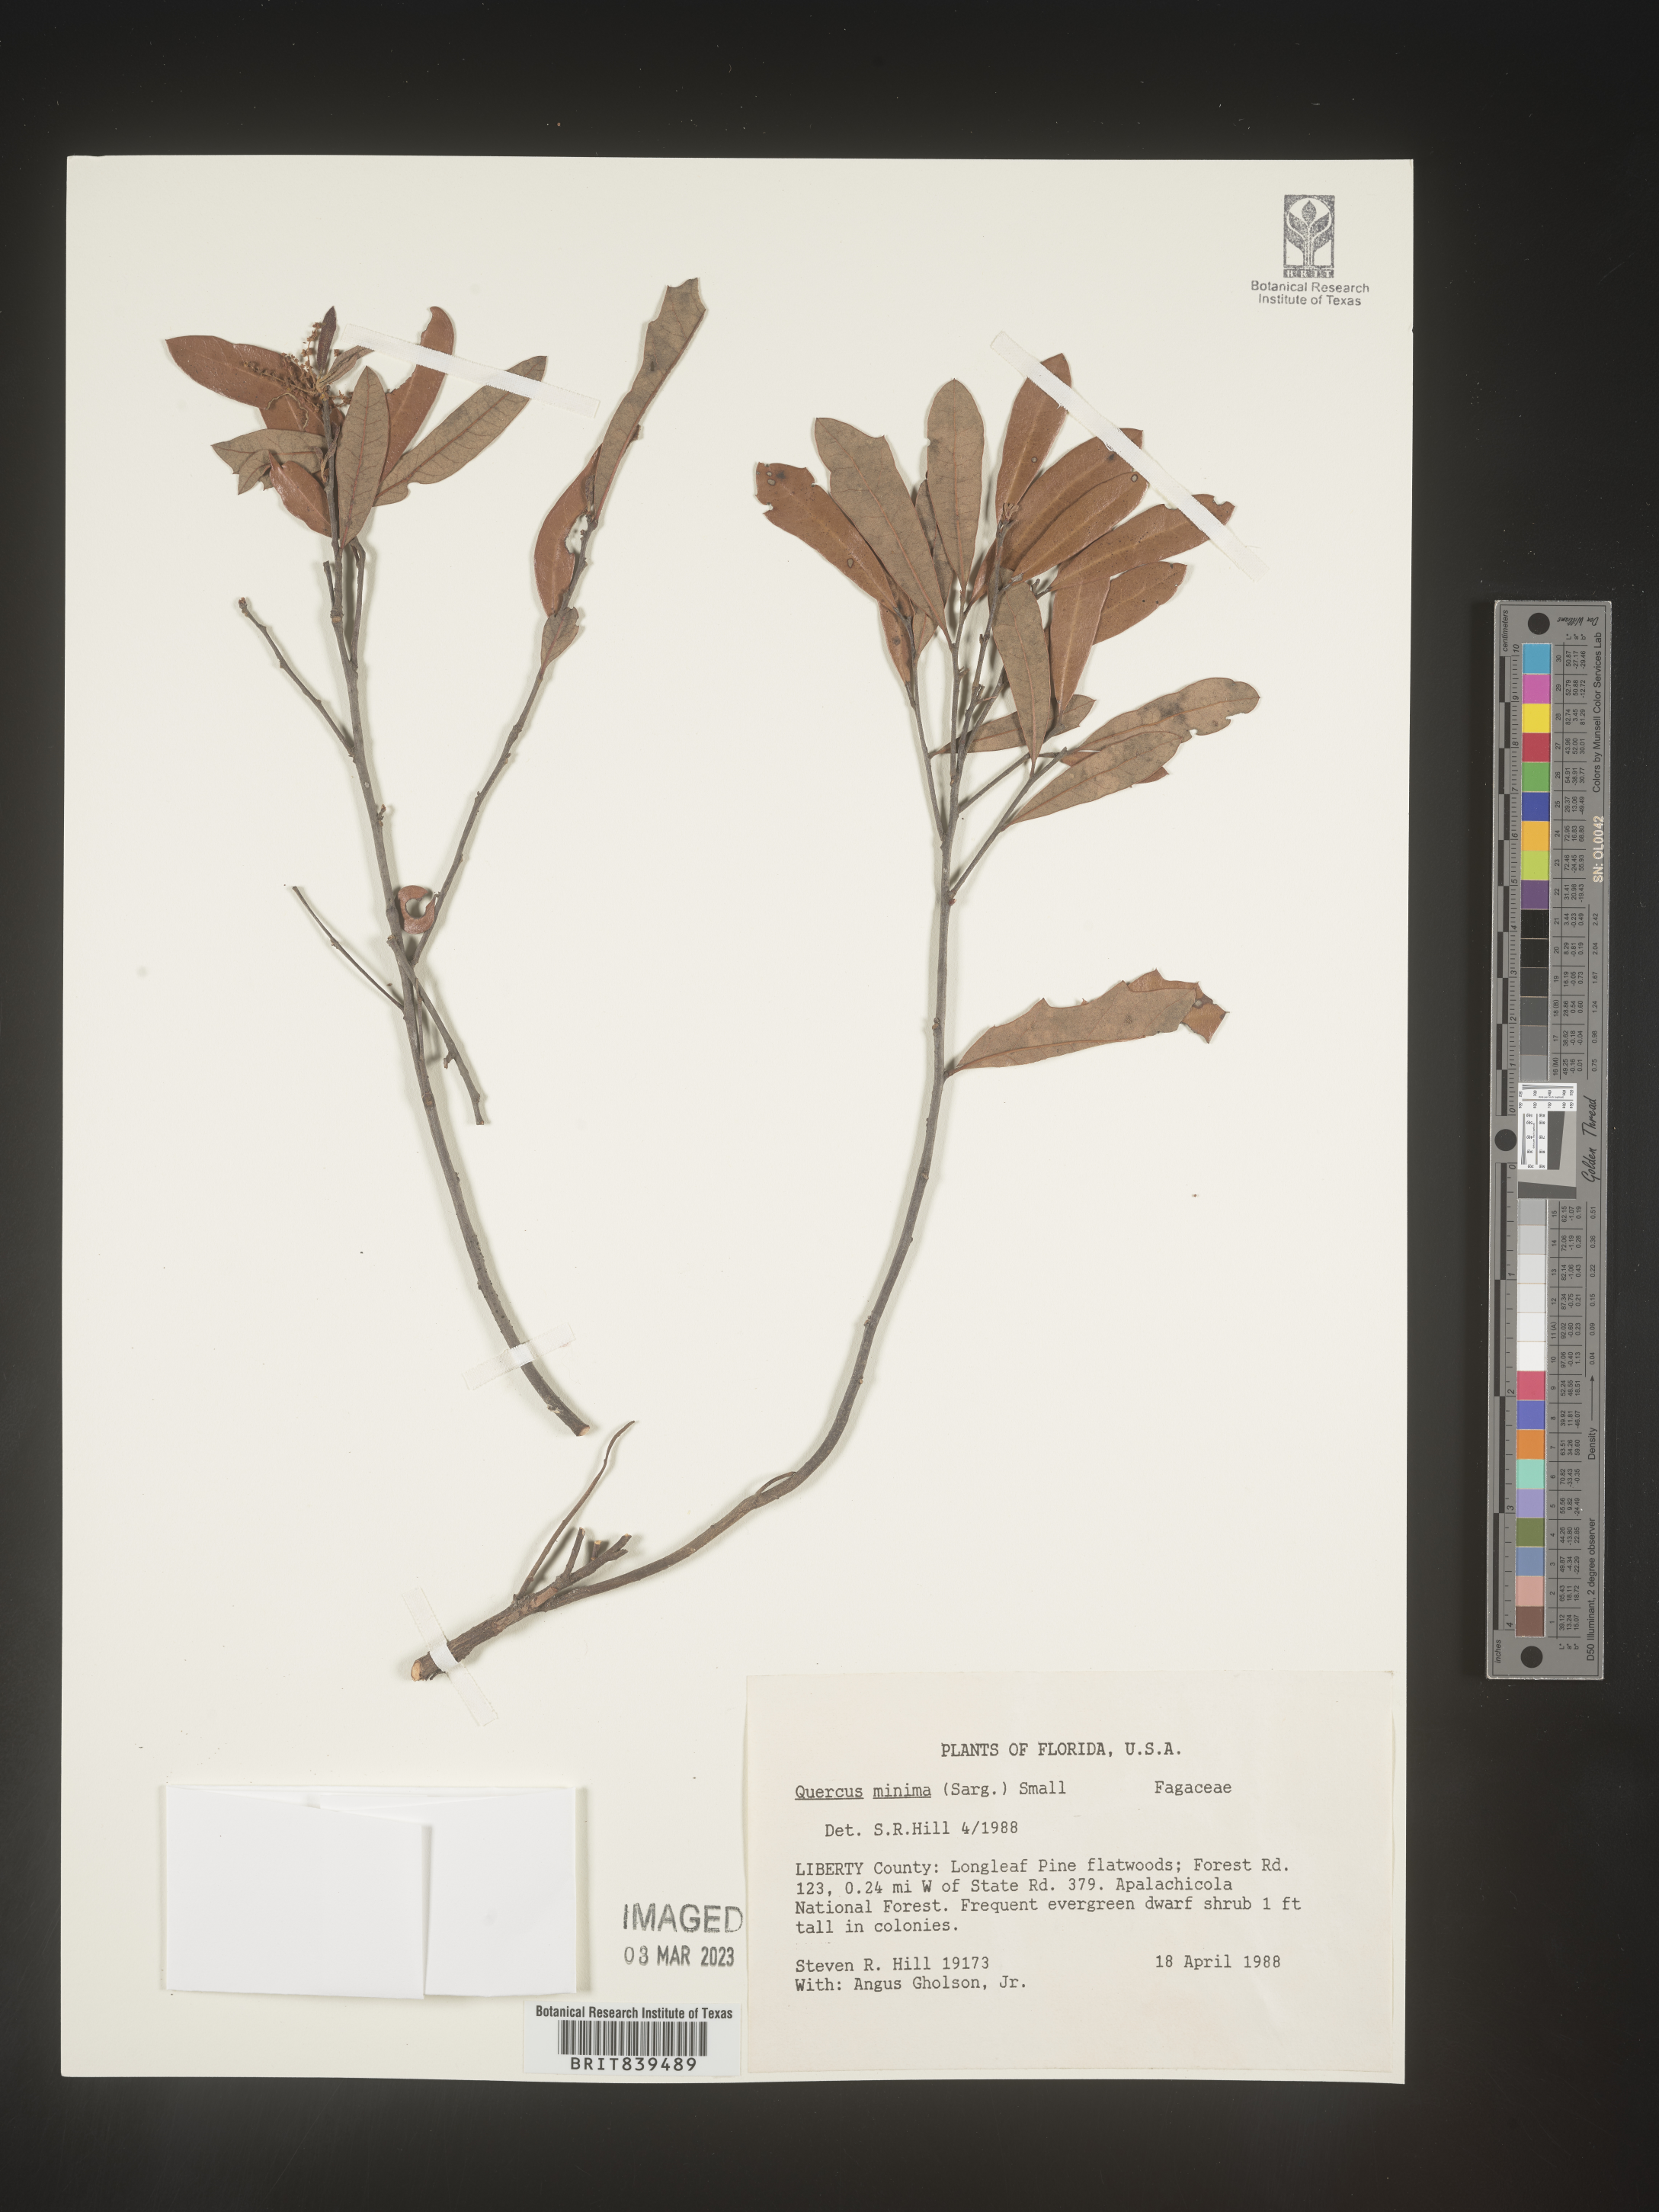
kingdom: Plantae
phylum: Tracheophyta
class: Magnoliopsida
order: Fagales
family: Fagaceae
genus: Quercus
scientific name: Quercus minima
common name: Dwarf live oak
